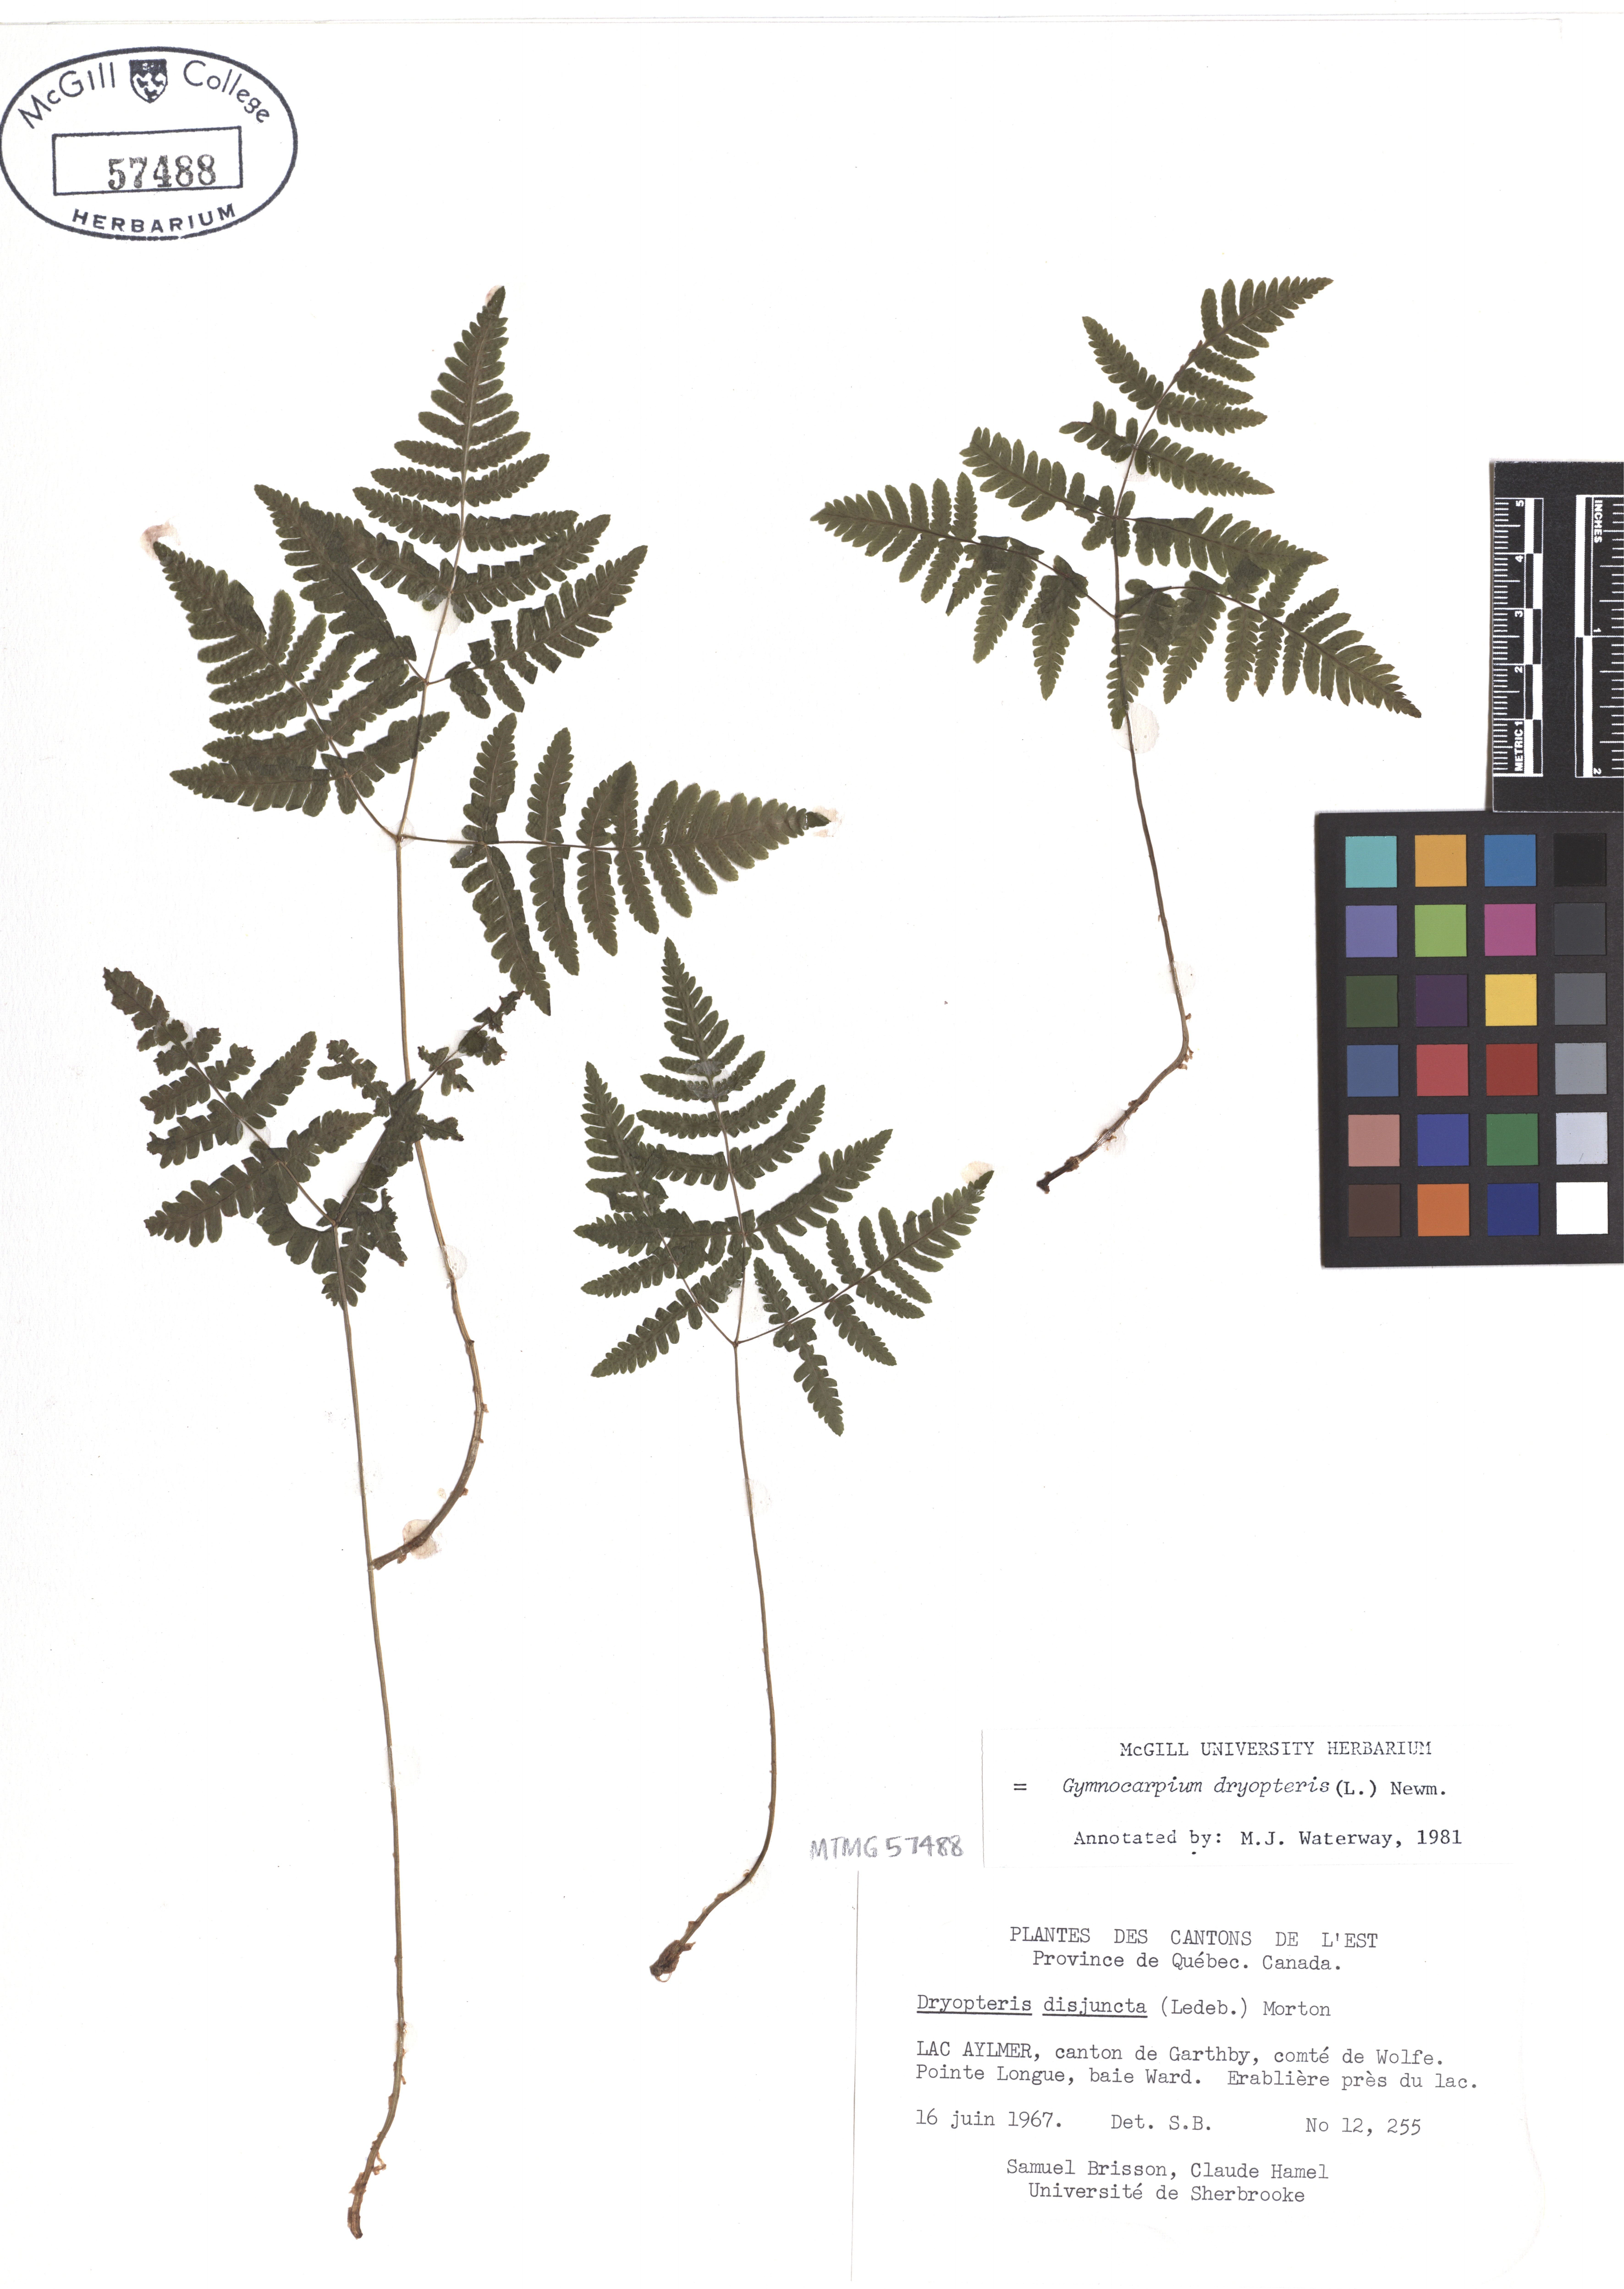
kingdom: Plantae
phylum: Tracheophyta
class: Polypodiopsida
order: Polypodiales
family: Cystopteridaceae
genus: Gymnocarpium
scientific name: Gymnocarpium dryopteris
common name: Oak fern
